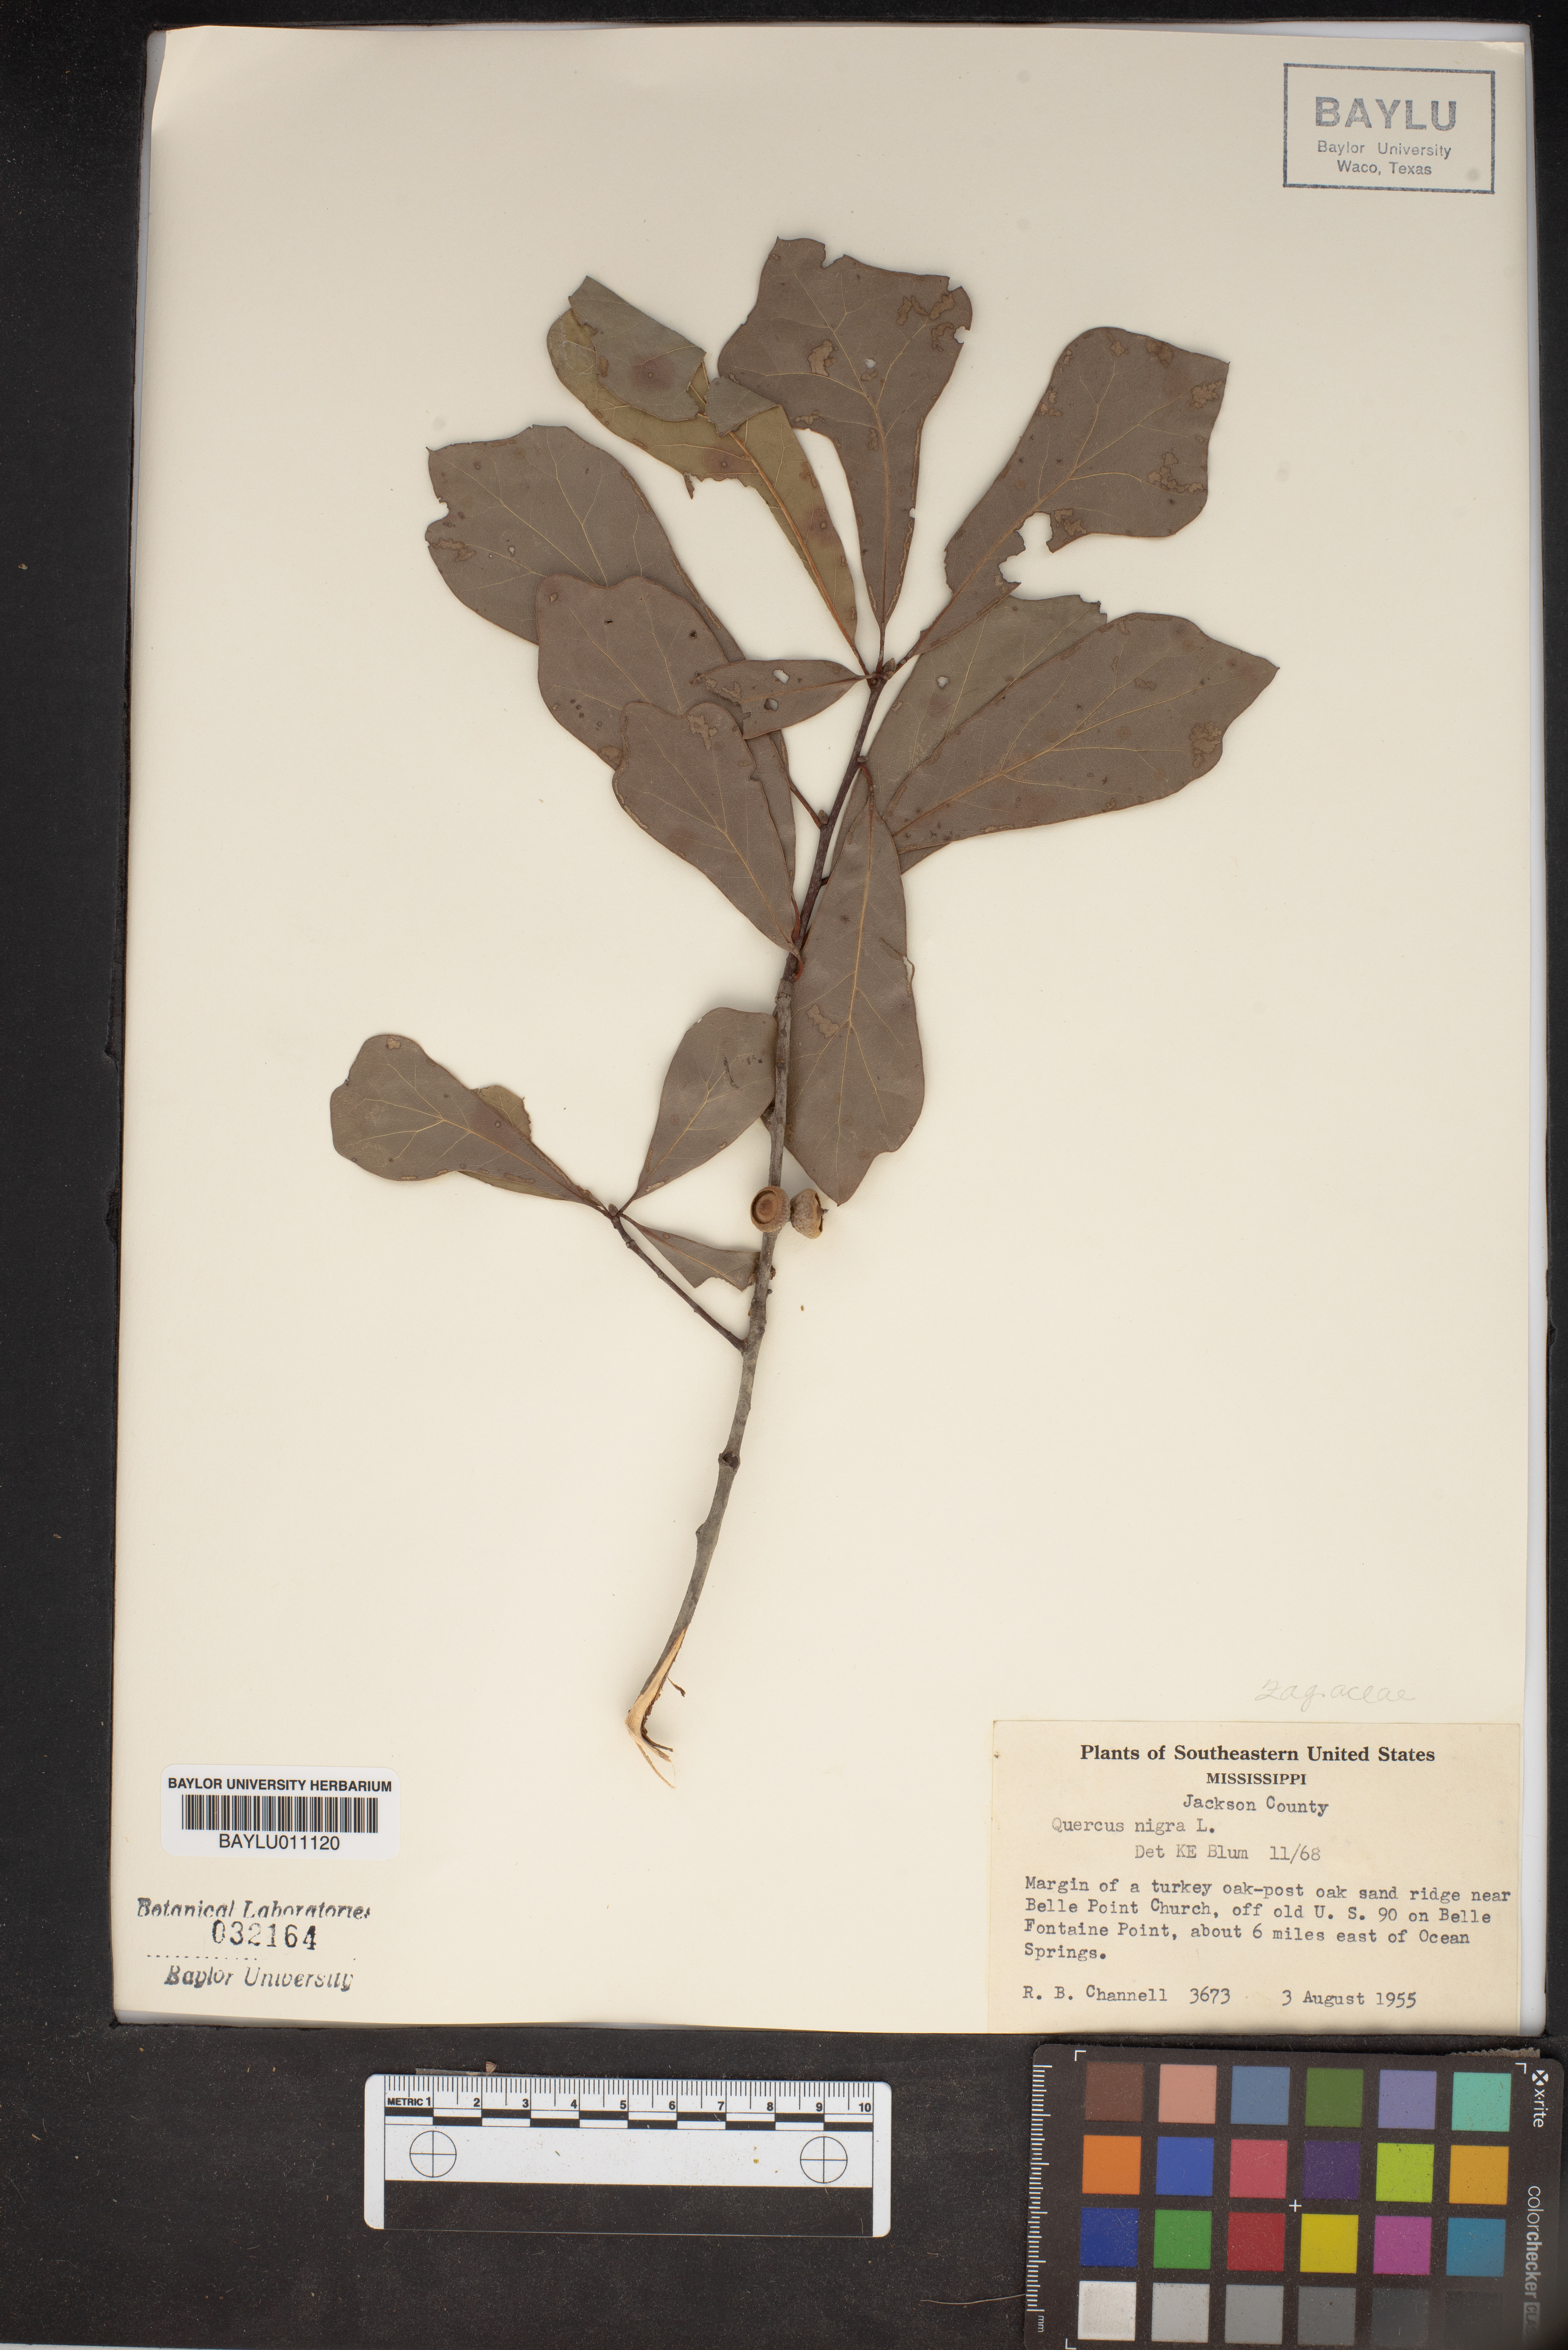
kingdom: Plantae
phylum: Tracheophyta
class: Magnoliopsida
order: Fagales
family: Fagaceae
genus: Quercus
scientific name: Quercus nigra
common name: Water oak
